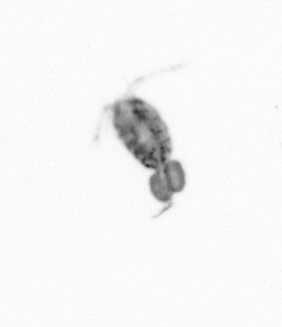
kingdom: Animalia
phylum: Arthropoda
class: Copepoda
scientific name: Copepoda
